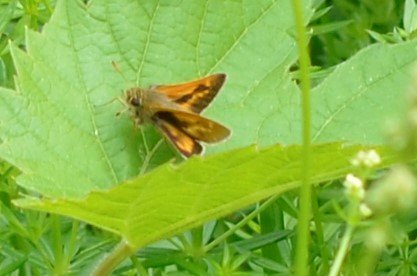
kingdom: Animalia
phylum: Arthropoda
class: Insecta
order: Lepidoptera
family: Hesperiidae
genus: Polites
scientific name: Polites
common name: Long Dash Skipper
